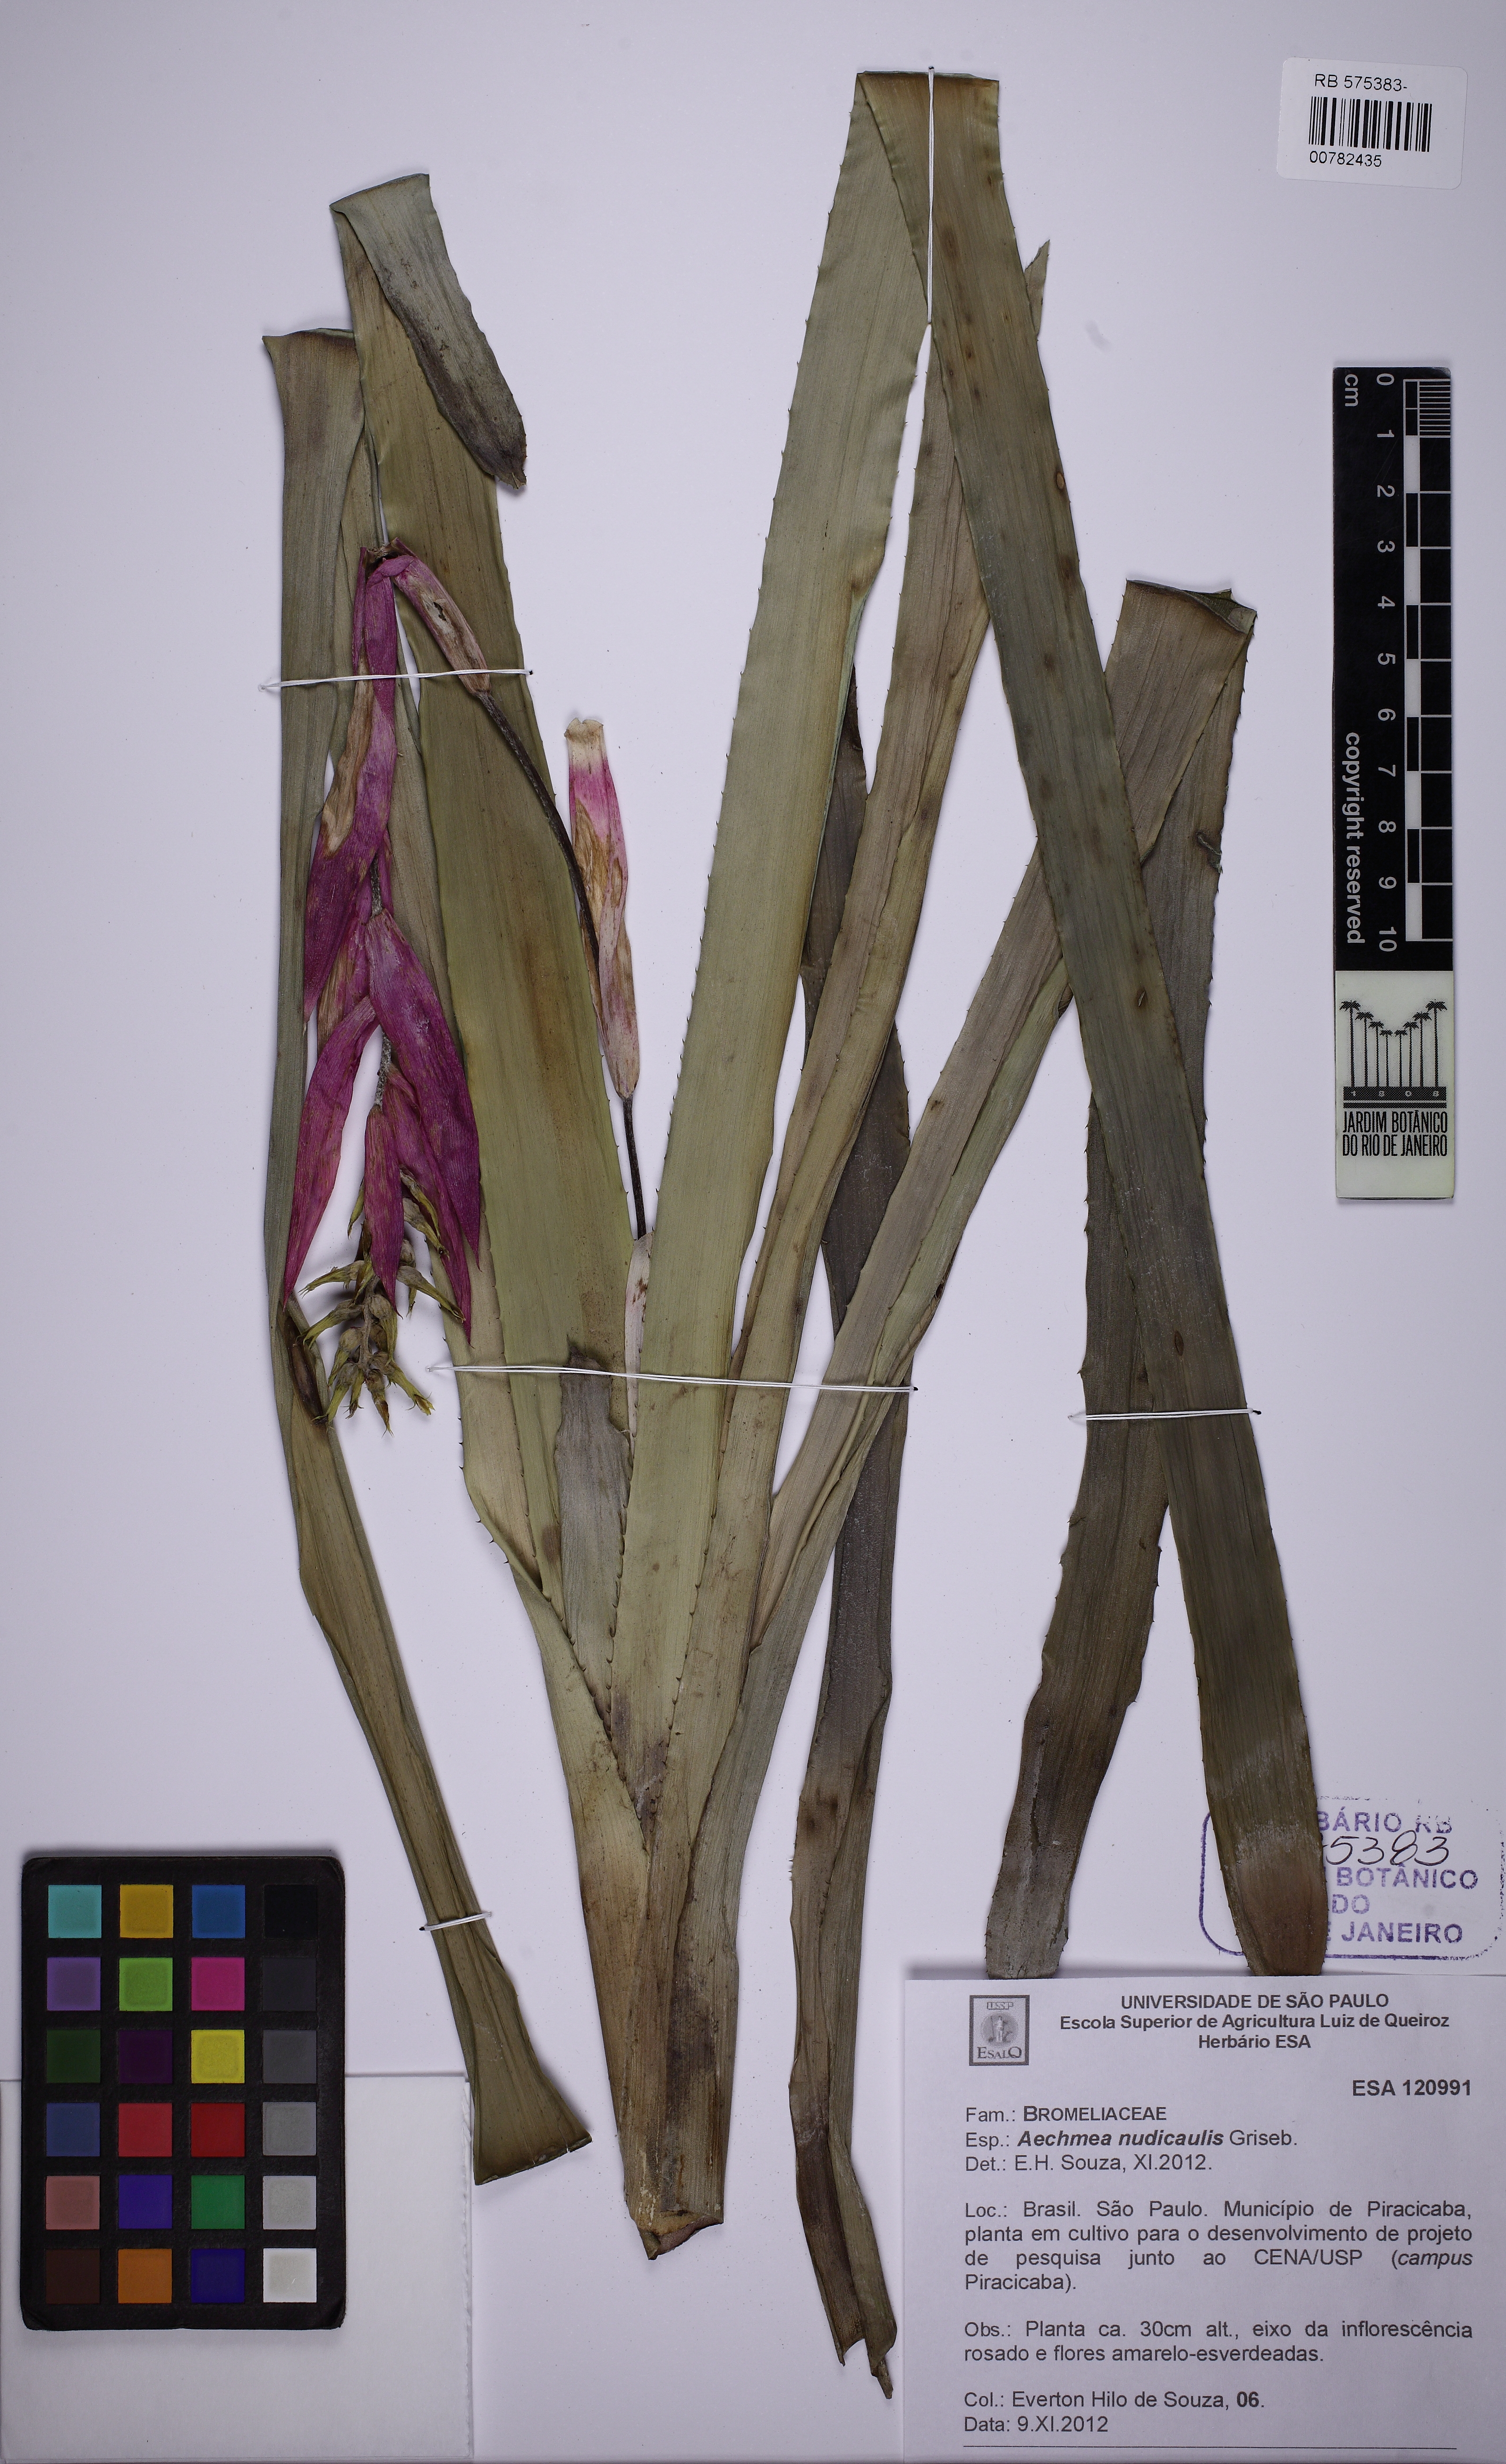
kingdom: Plantae
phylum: Tracheophyta
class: Liliopsida
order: Poales
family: Bromeliaceae
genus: Aechmea
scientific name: Aechmea nudicaulis
